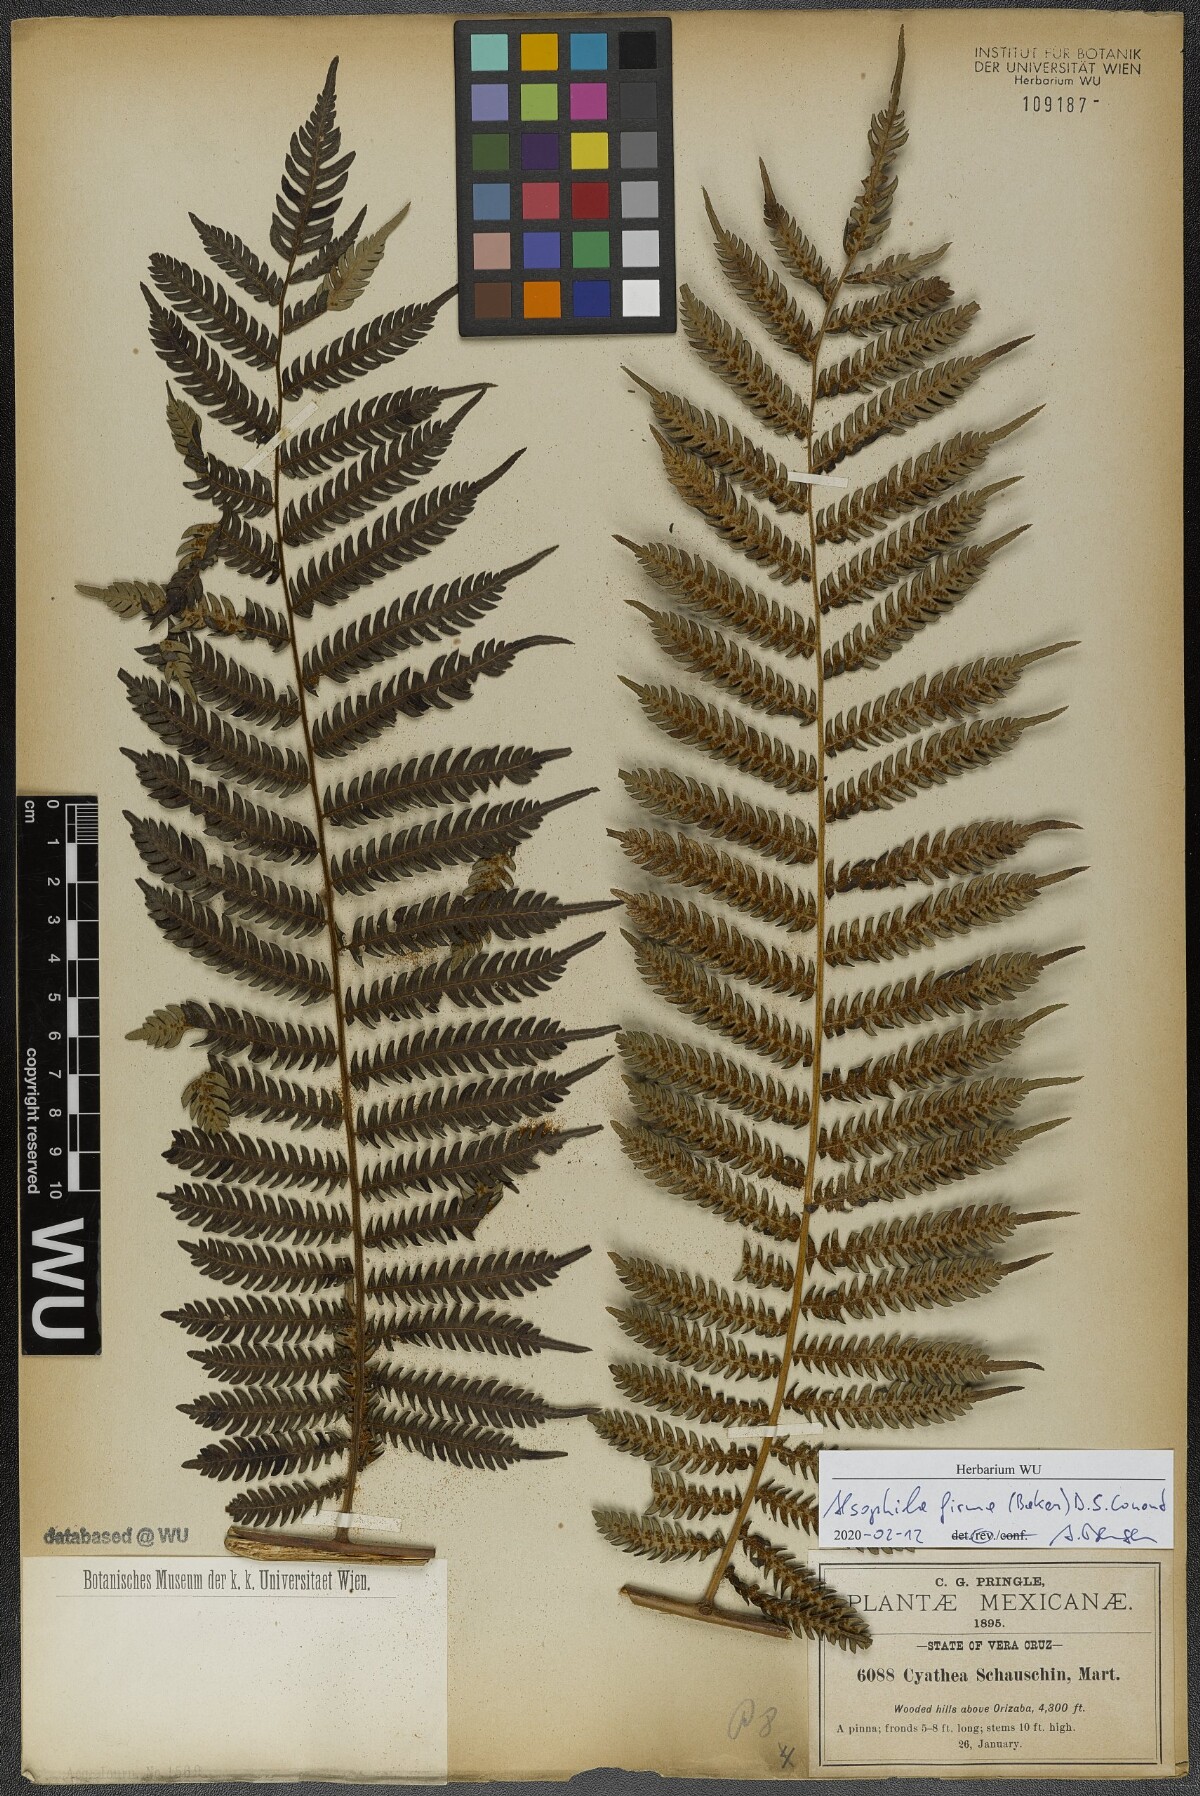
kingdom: Plantae
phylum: Tracheophyta
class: Polypodiopsida
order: Cyatheales
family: Cyatheaceae
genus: Alsophila
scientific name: Alsophila firma
